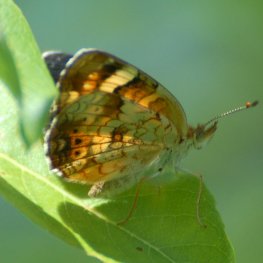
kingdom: Animalia
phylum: Arthropoda
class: Insecta
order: Lepidoptera
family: Nymphalidae
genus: Phyciodes
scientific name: Phyciodes tharos
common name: Northern Crescent
